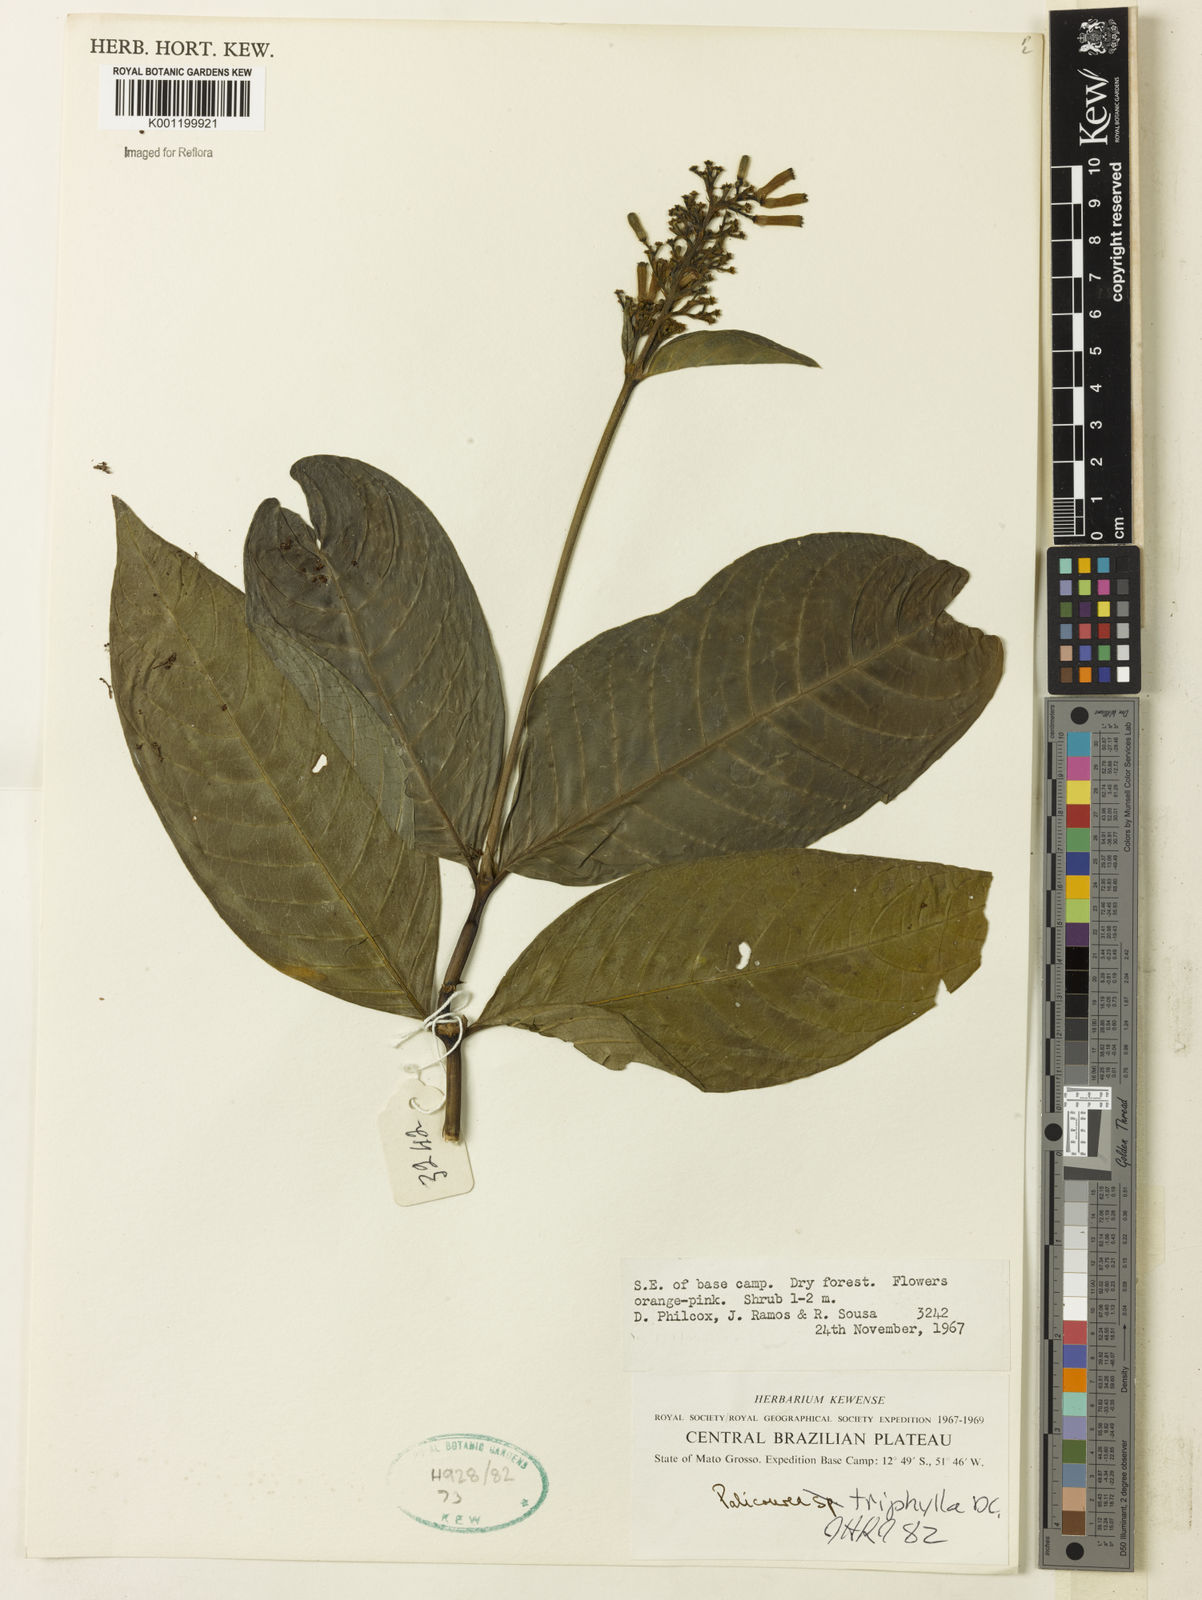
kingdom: Plantae
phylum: Tracheophyta
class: Magnoliopsida
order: Gentianales
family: Rubiaceae
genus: Palicourea
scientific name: Palicourea triphylla
